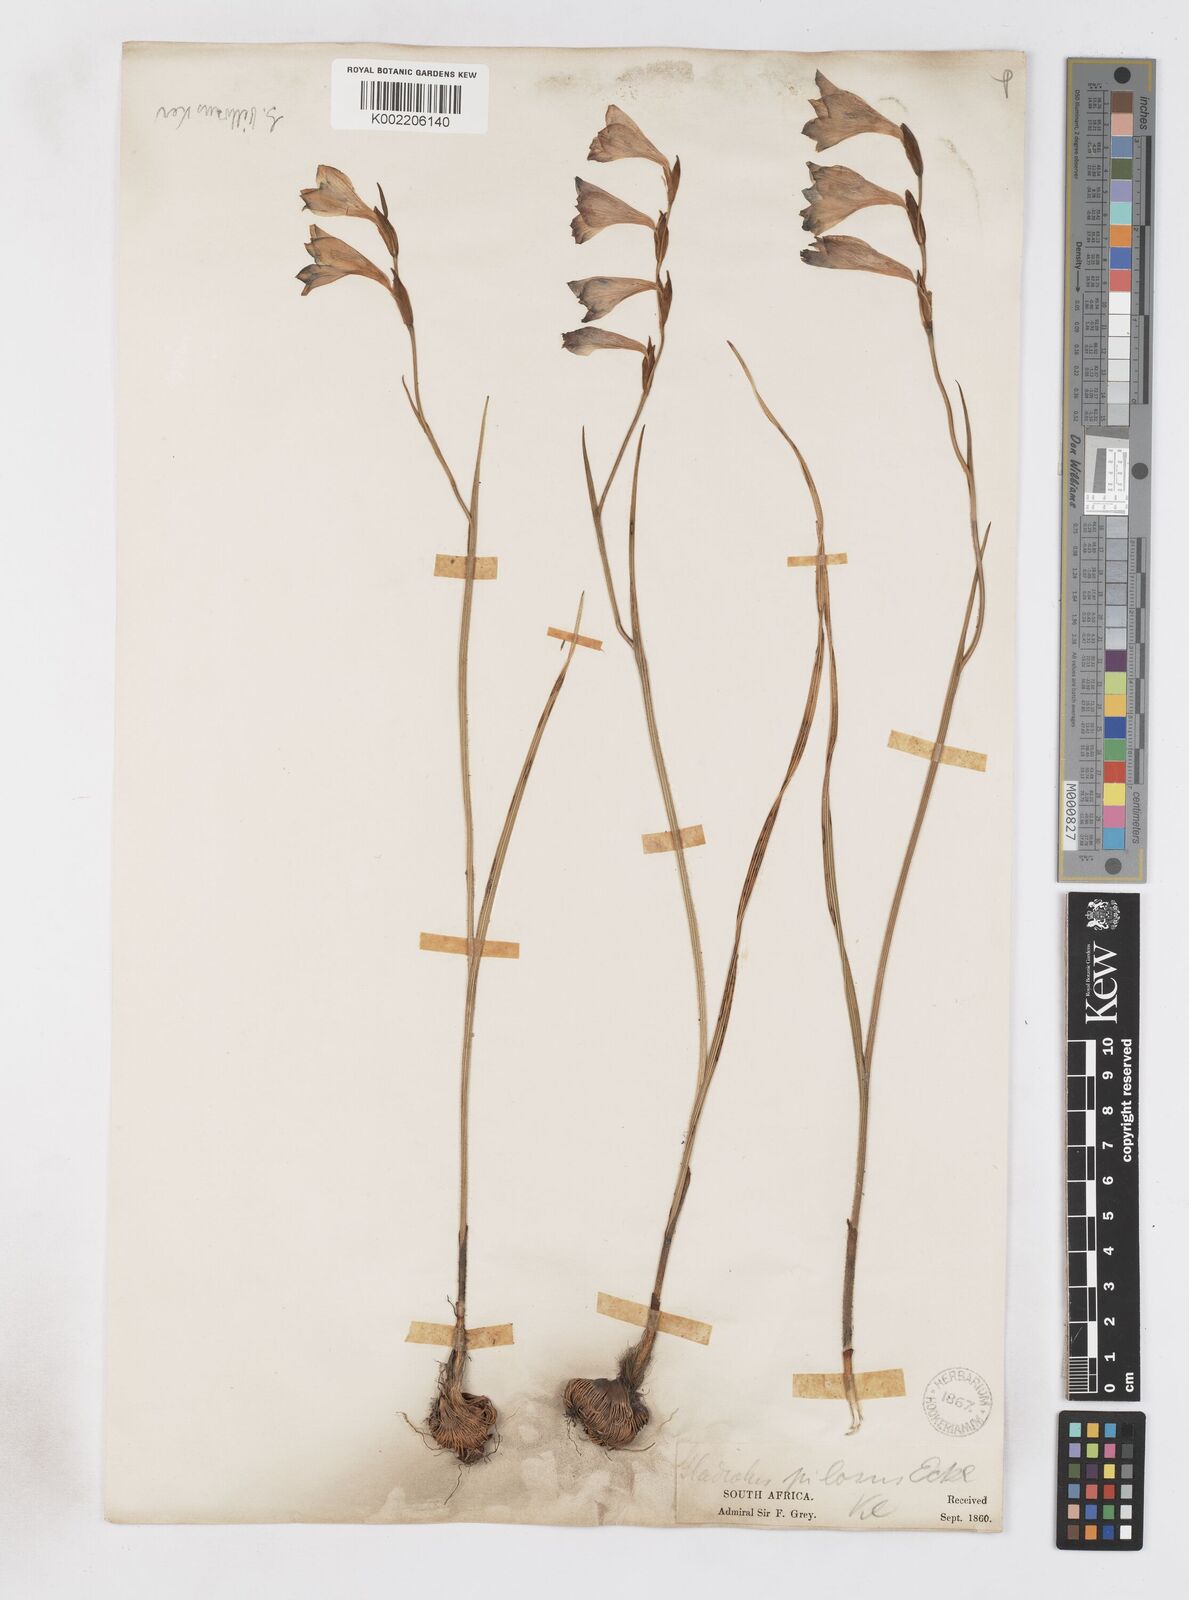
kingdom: Plantae
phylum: Tracheophyta
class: Liliopsida
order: Asparagales
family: Iridaceae
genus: Gladiolus
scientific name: Gladiolus hirsutus
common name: Small pink afrikaner
